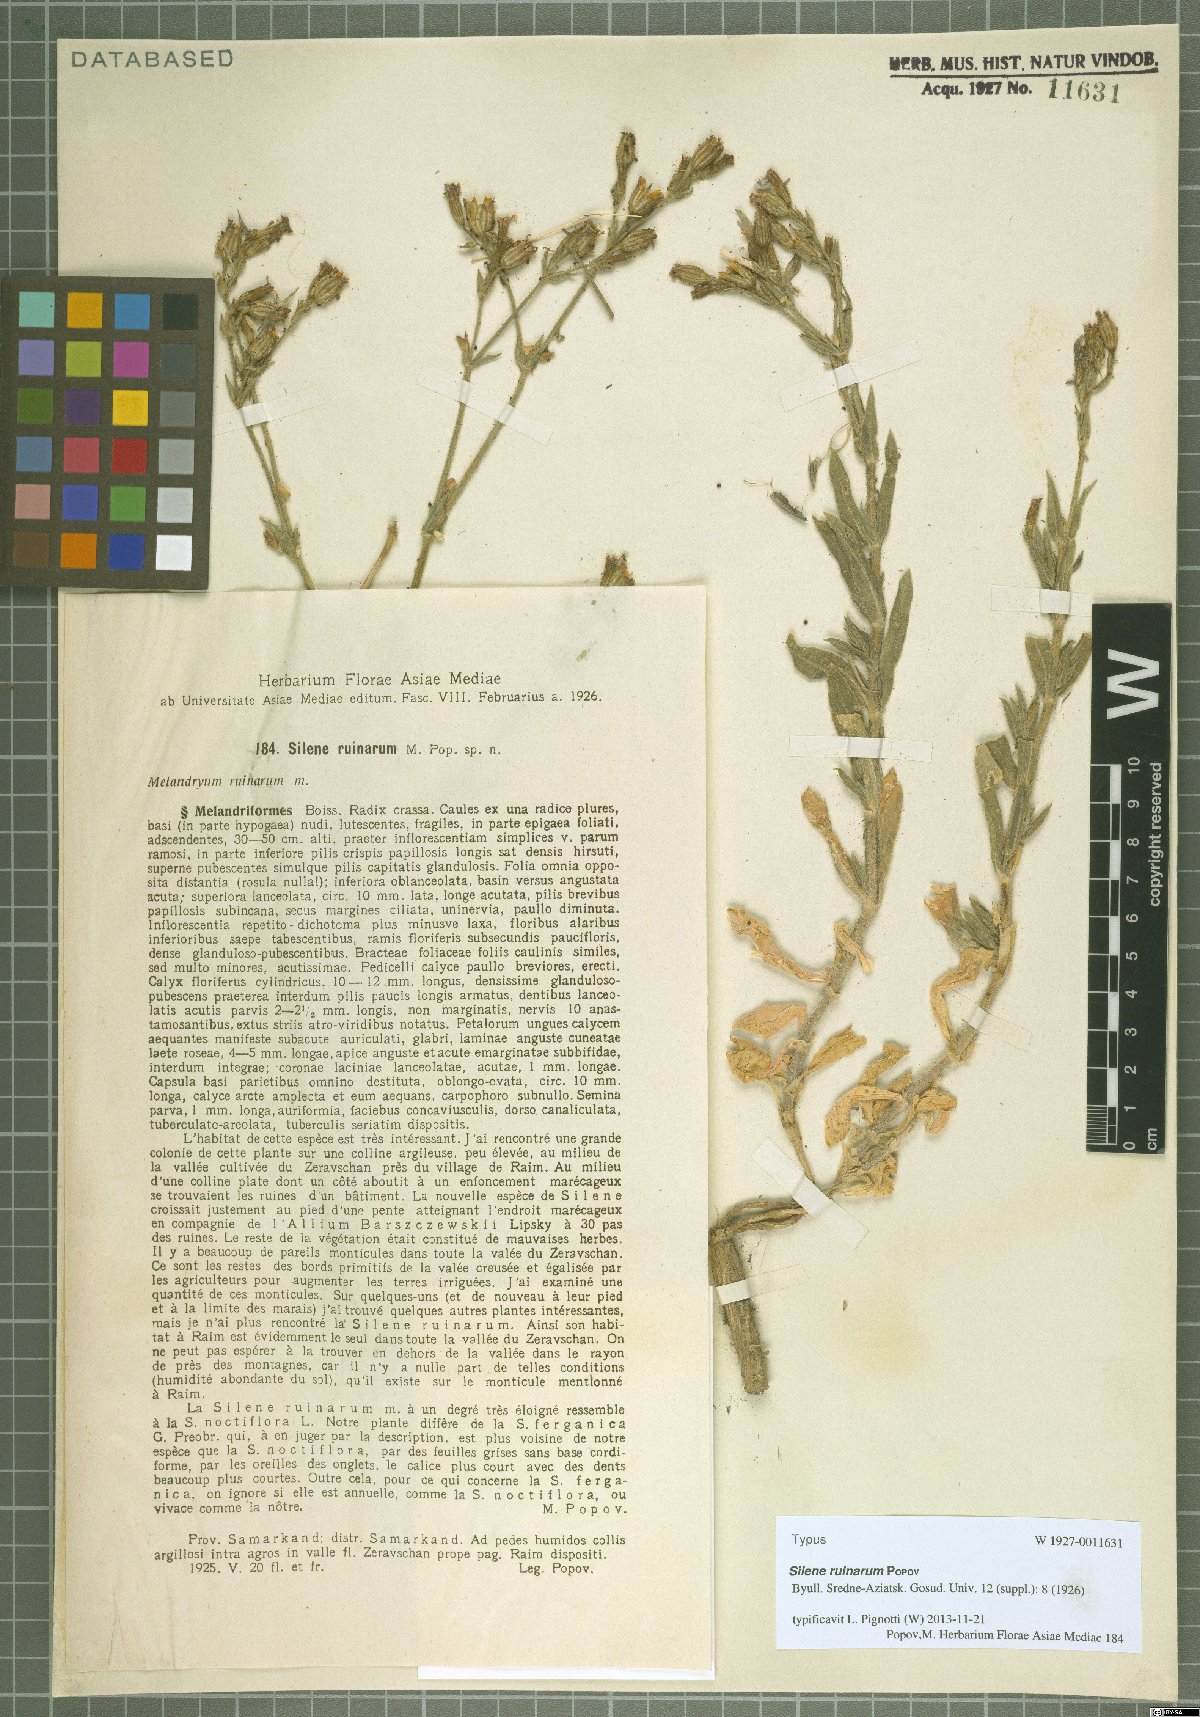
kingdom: Plantae
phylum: Tracheophyta
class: Magnoliopsida
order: Caryophyllales
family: Caryophyllaceae
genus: Silene
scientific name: Silene ruinarum
